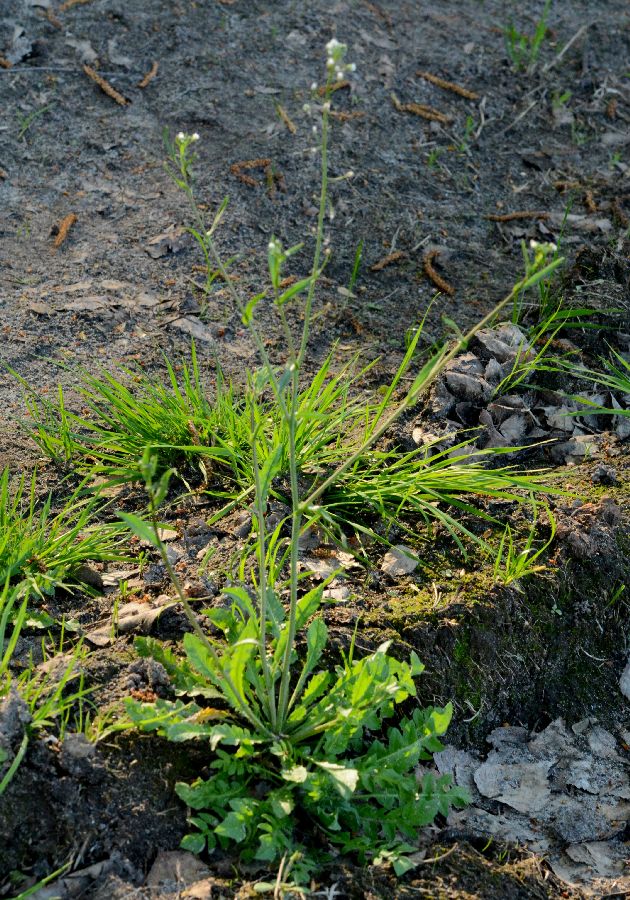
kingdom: Plantae
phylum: Tracheophyta
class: Magnoliopsida
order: Brassicales
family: Brassicaceae
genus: Capsella
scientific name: Capsella bursa-pastoris
